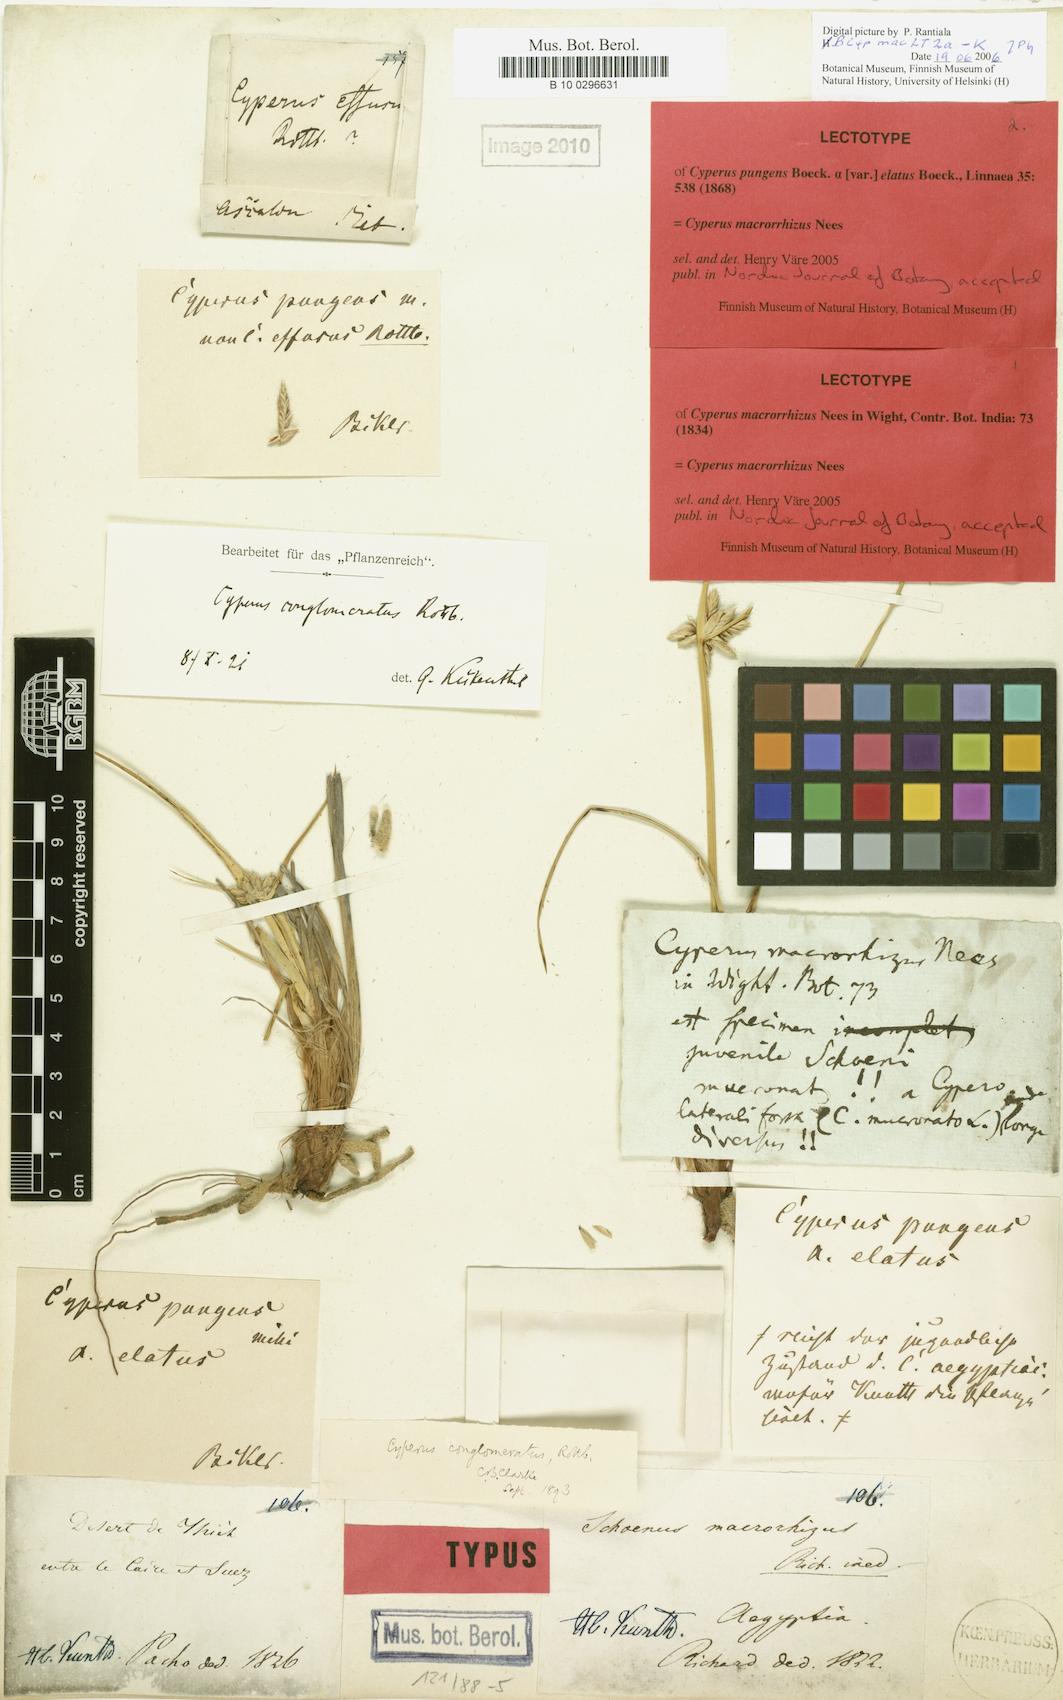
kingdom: Plantae
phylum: Tracheophyta
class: Liliopsida
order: Poales
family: Cyperaceae
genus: Cyperus
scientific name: Cyperus macrorrhizus
